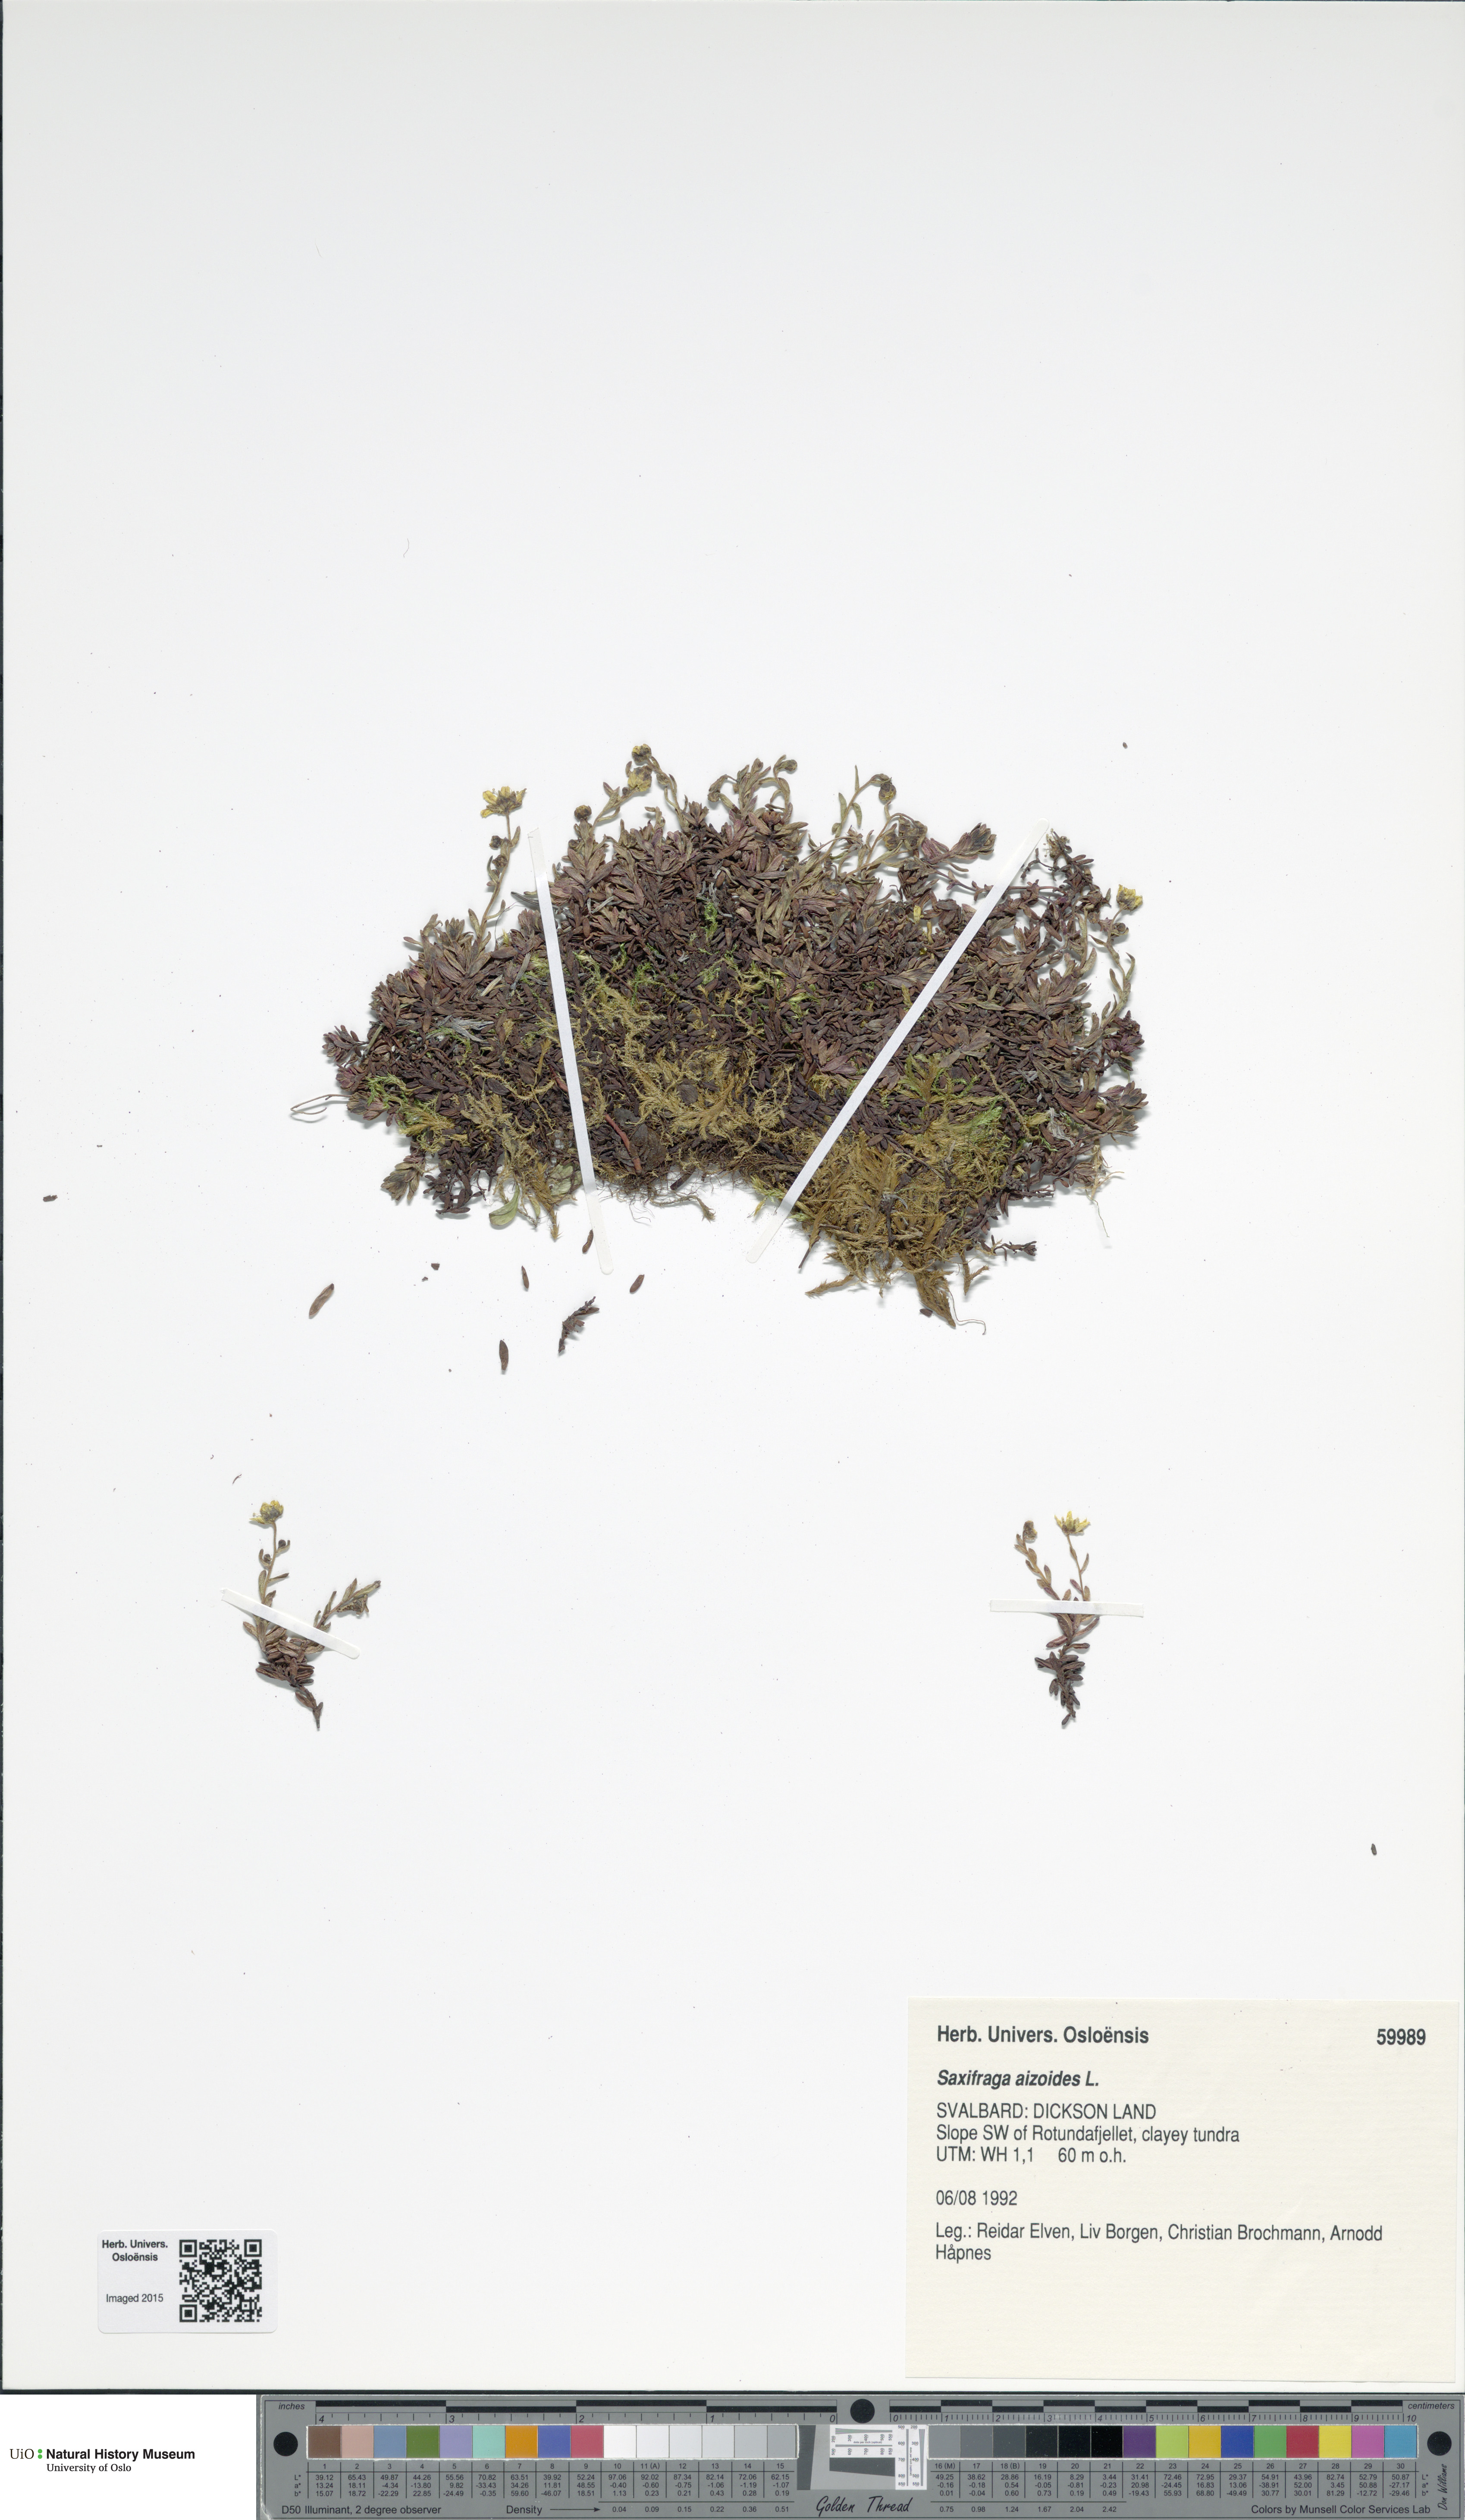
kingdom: Plantae
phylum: Tracheophyta
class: Magnoliopsida
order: Saxifragales
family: Saxifragaceae
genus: Saxifraga
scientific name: Saxifraga aizoides
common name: Yellow mountain saxifrage
